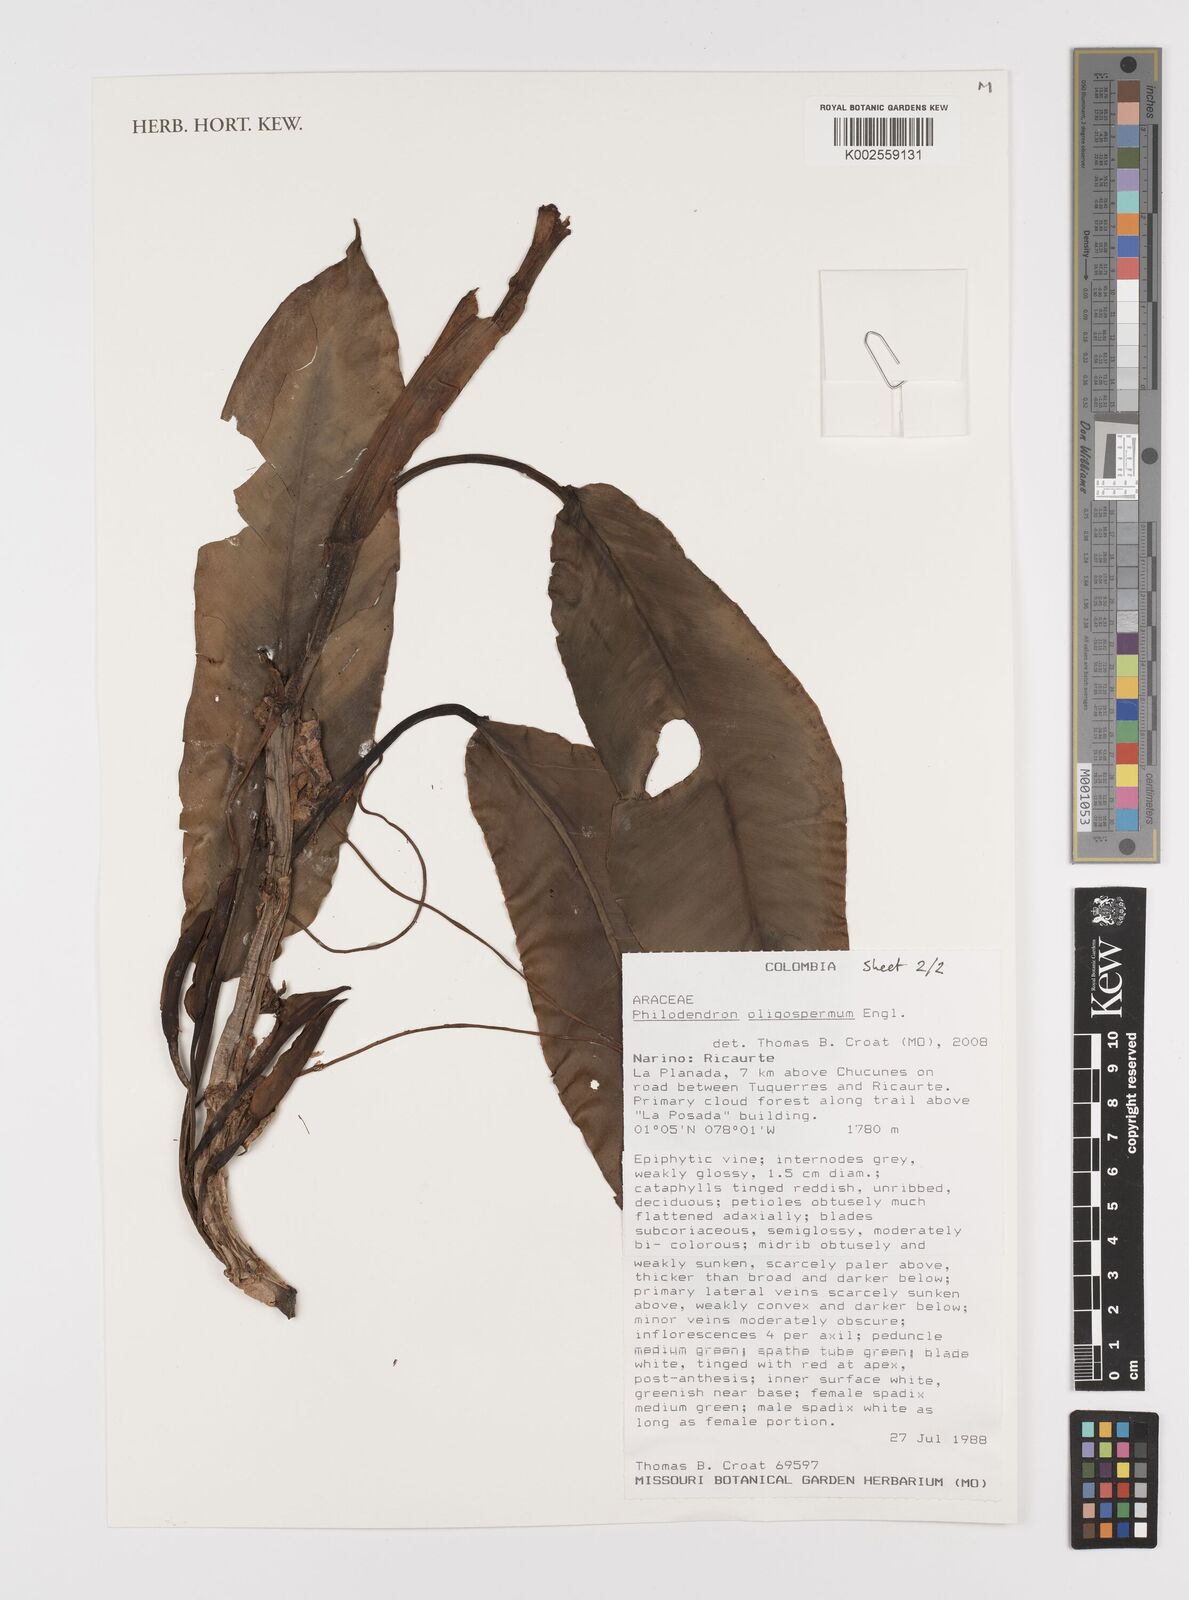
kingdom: Plantae
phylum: Tracheophyta
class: Liliopsida
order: Alismatales
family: Araceae
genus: Philodendron
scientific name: Philodendron oligospermum
